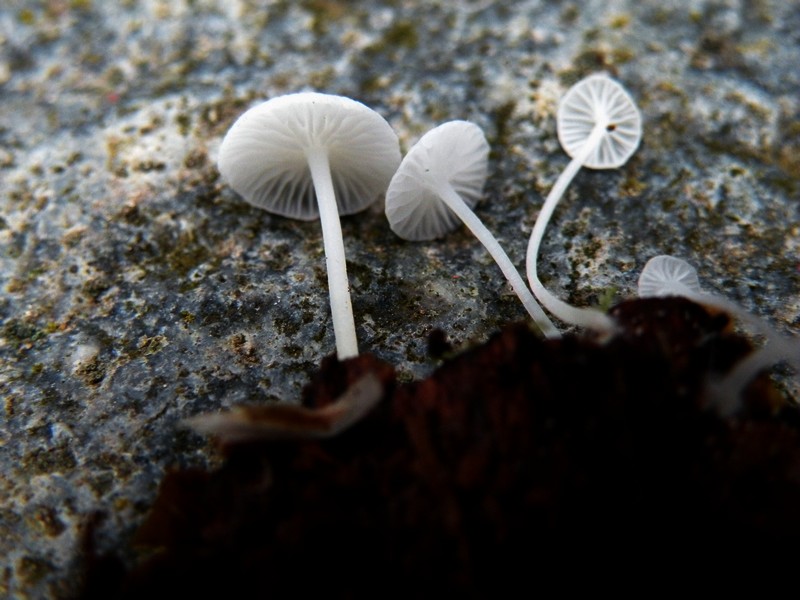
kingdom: Fungi
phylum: Basidiomycota
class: Agaricomycetes
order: Agaricales
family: Mycenaceae
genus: Hemimycena
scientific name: Hemimycena lactea
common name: mælkehvid huesvamp
